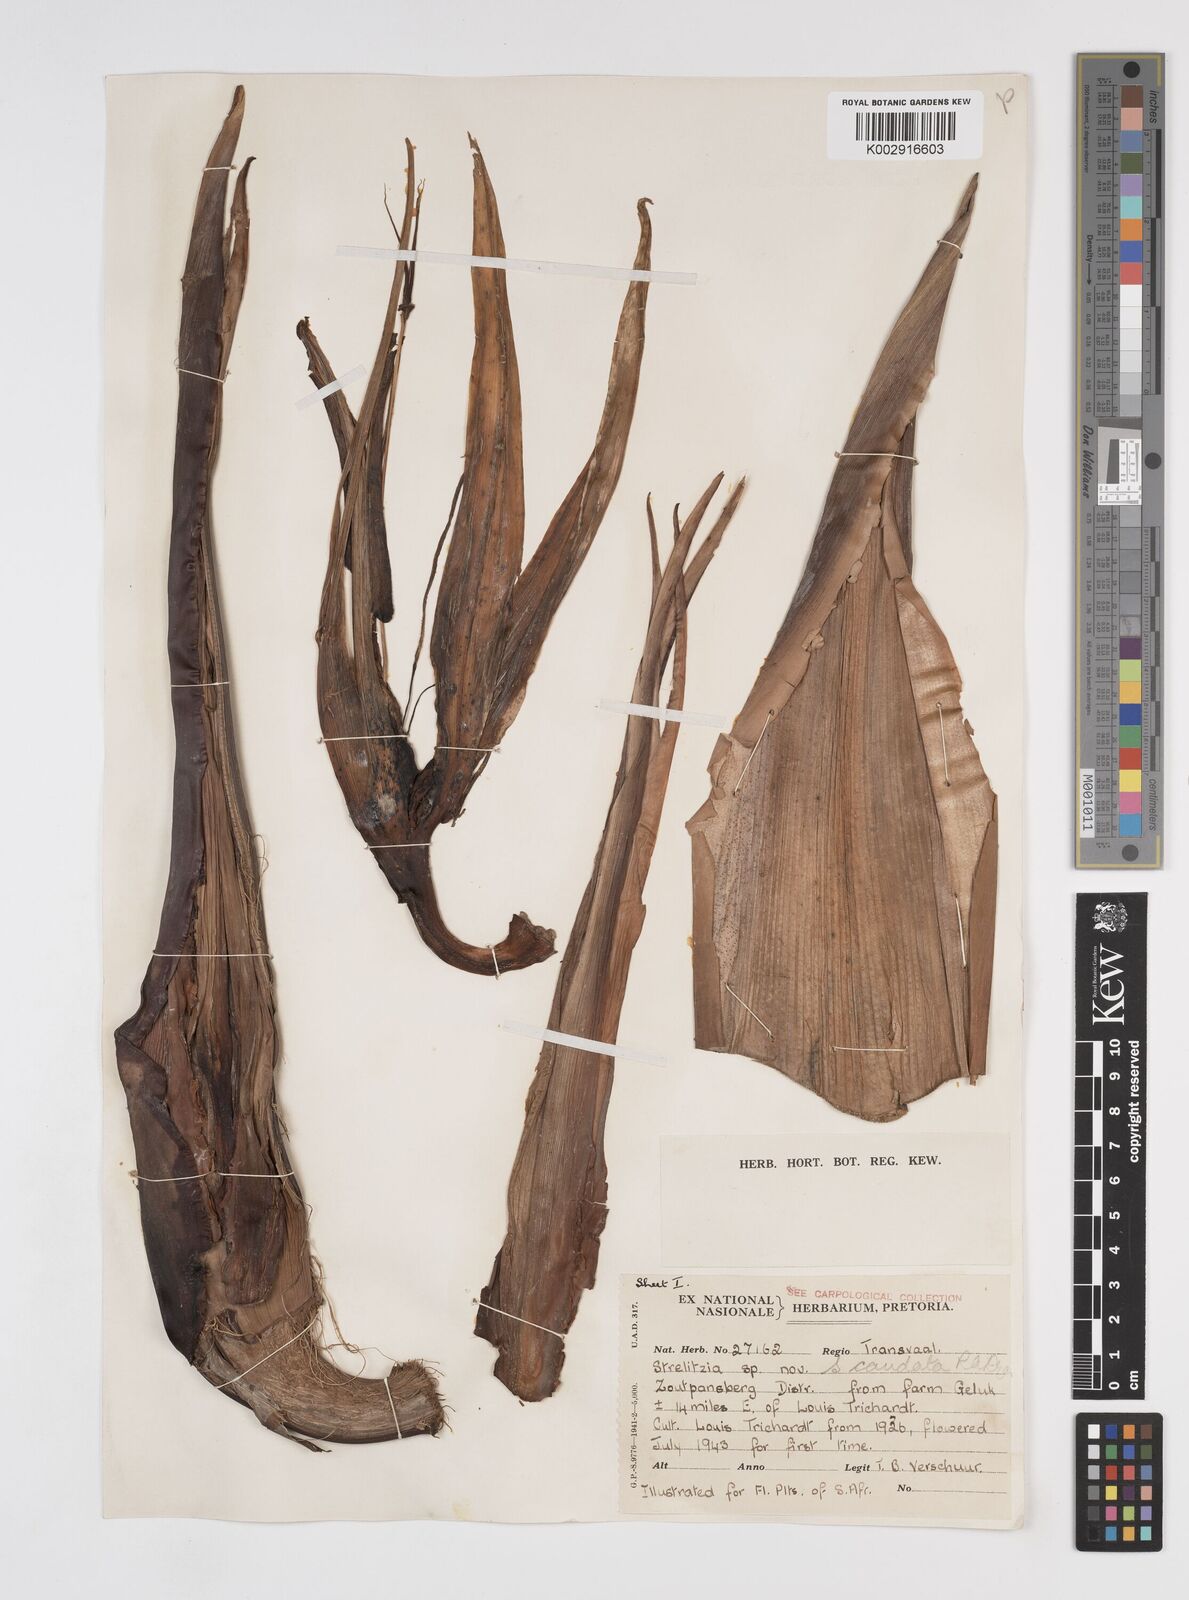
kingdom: Plantae
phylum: Tracheophyta
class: Liliopsida
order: Zingiberales
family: Strelitziaceae
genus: Strelitzia
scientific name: Strelitzia caudata
